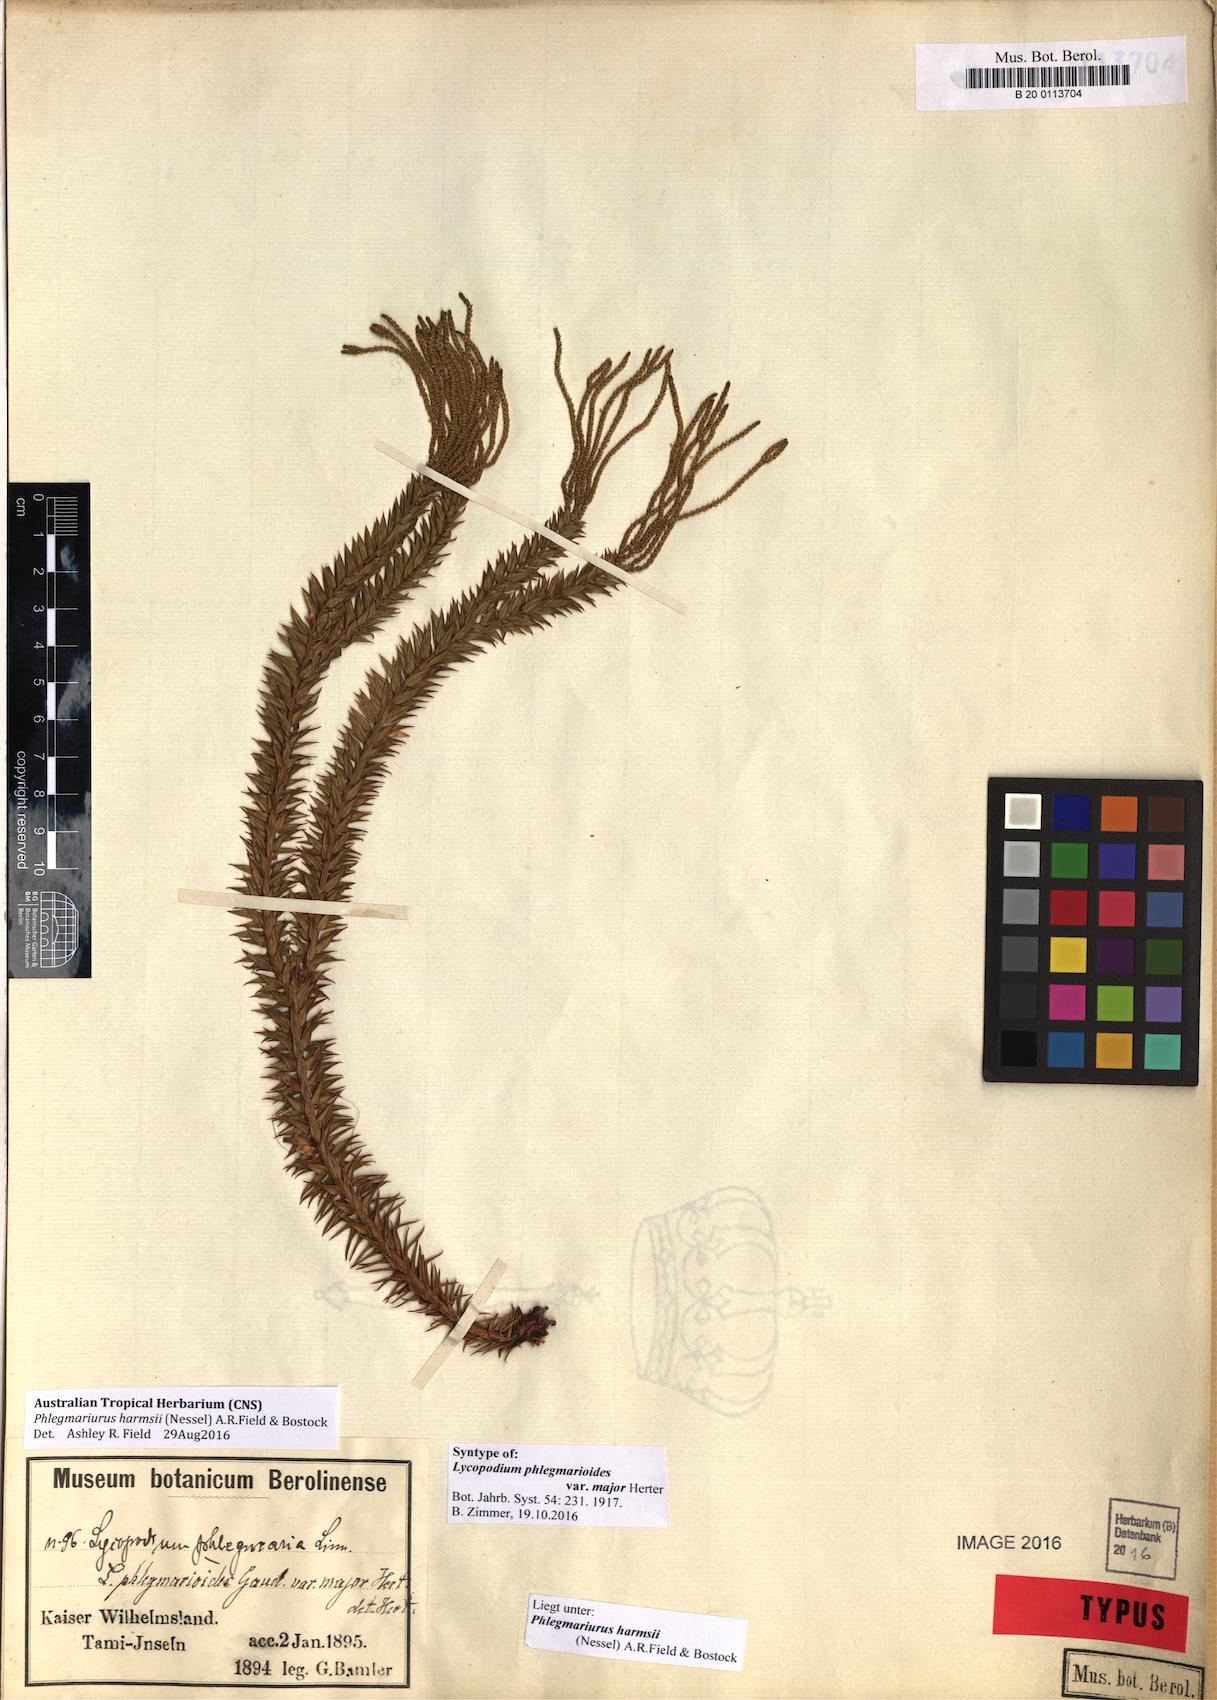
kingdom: Plantae
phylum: Tracheophyta
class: Lycopodiopsida
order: Lycopodiales
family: Lycopodiaceae
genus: Phlegmariurus
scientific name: Phlegmariurus harmsii
